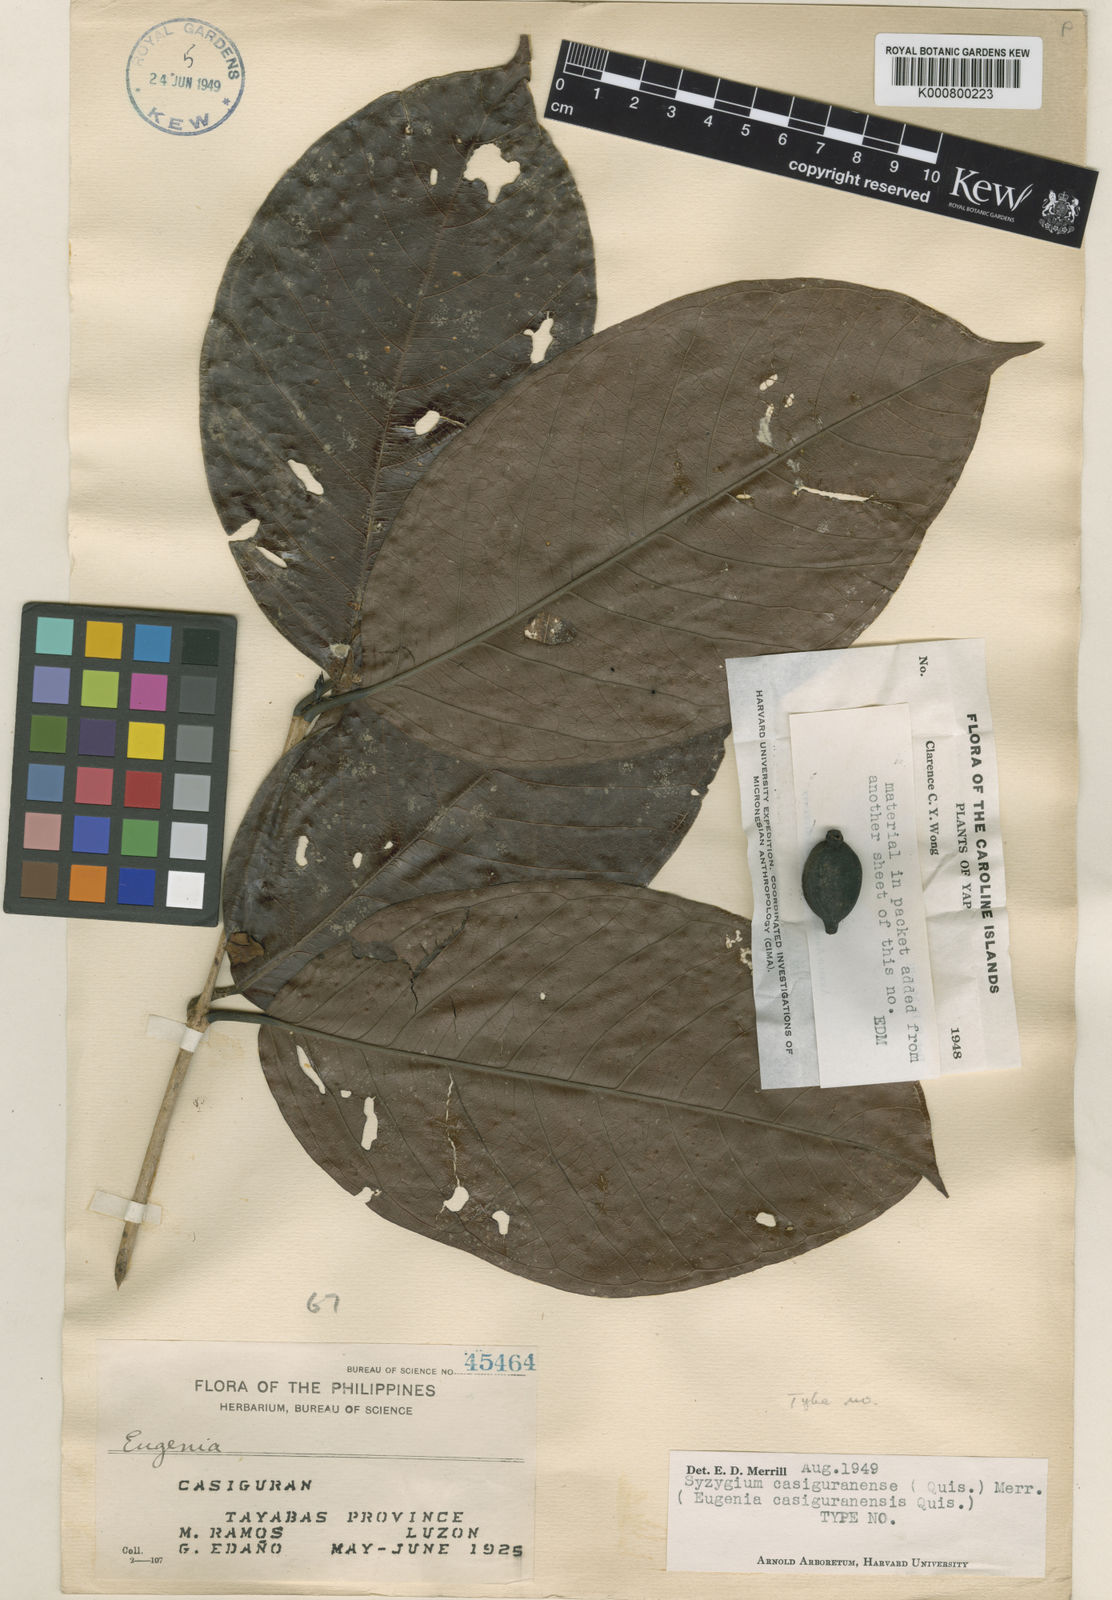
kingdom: Plantae
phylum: Tracheophyta
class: Magnoliopsida
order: Myrtales
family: Myrtaceae
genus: Syzygium
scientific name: Syzygium casiguranense
